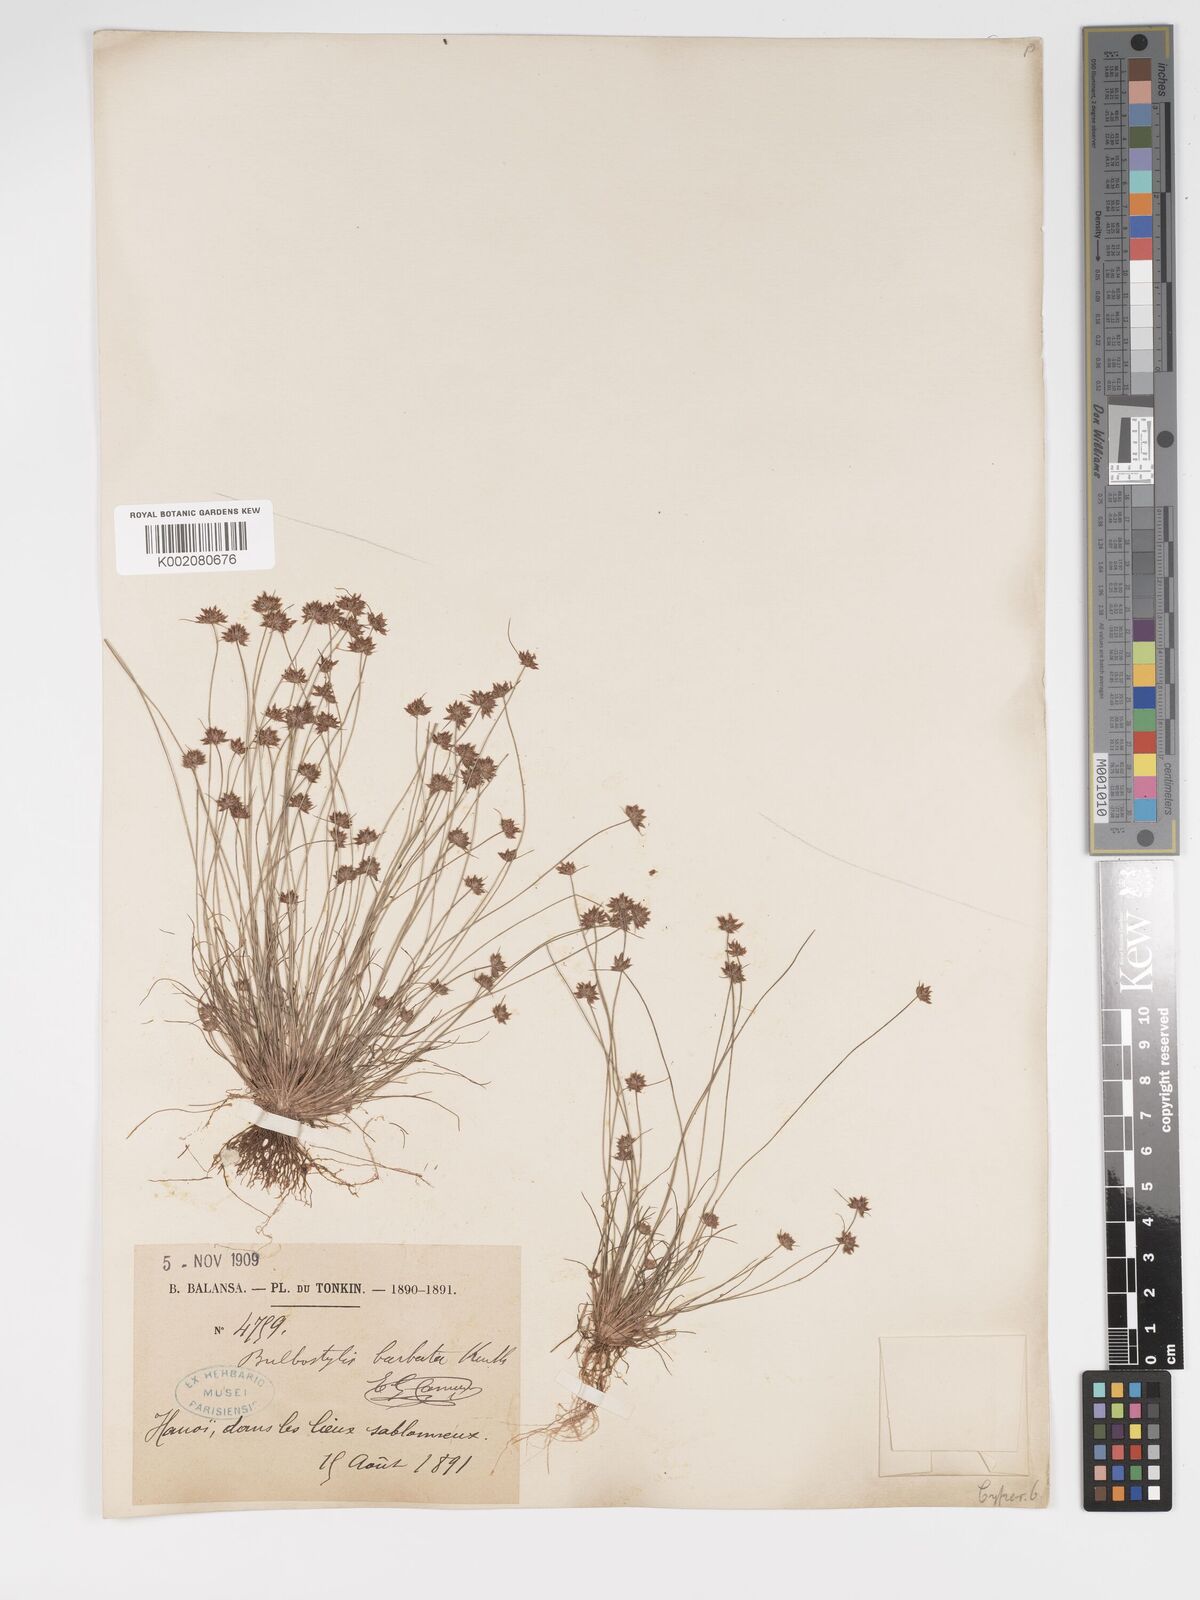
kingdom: Plantae
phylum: Tracheophyta
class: Liliopsida
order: Poales
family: Cyperaceae
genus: Bulbostylis
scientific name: Bulbostylis barbata
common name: Watergrass
